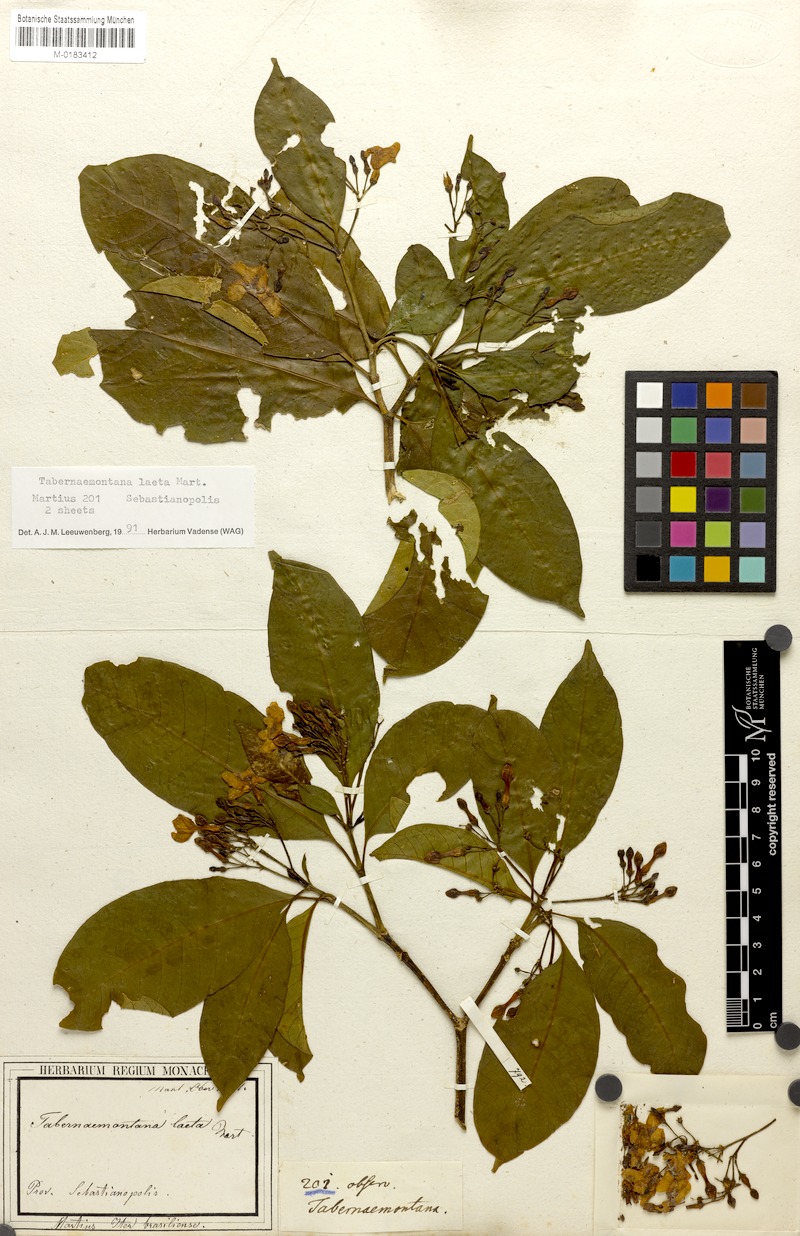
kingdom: Plantae
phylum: Tracheophyta
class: Magnoliopsida
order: Gentianales
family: Apocynaceae
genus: Tabernaemontana
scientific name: Tabernaemontana laeta
